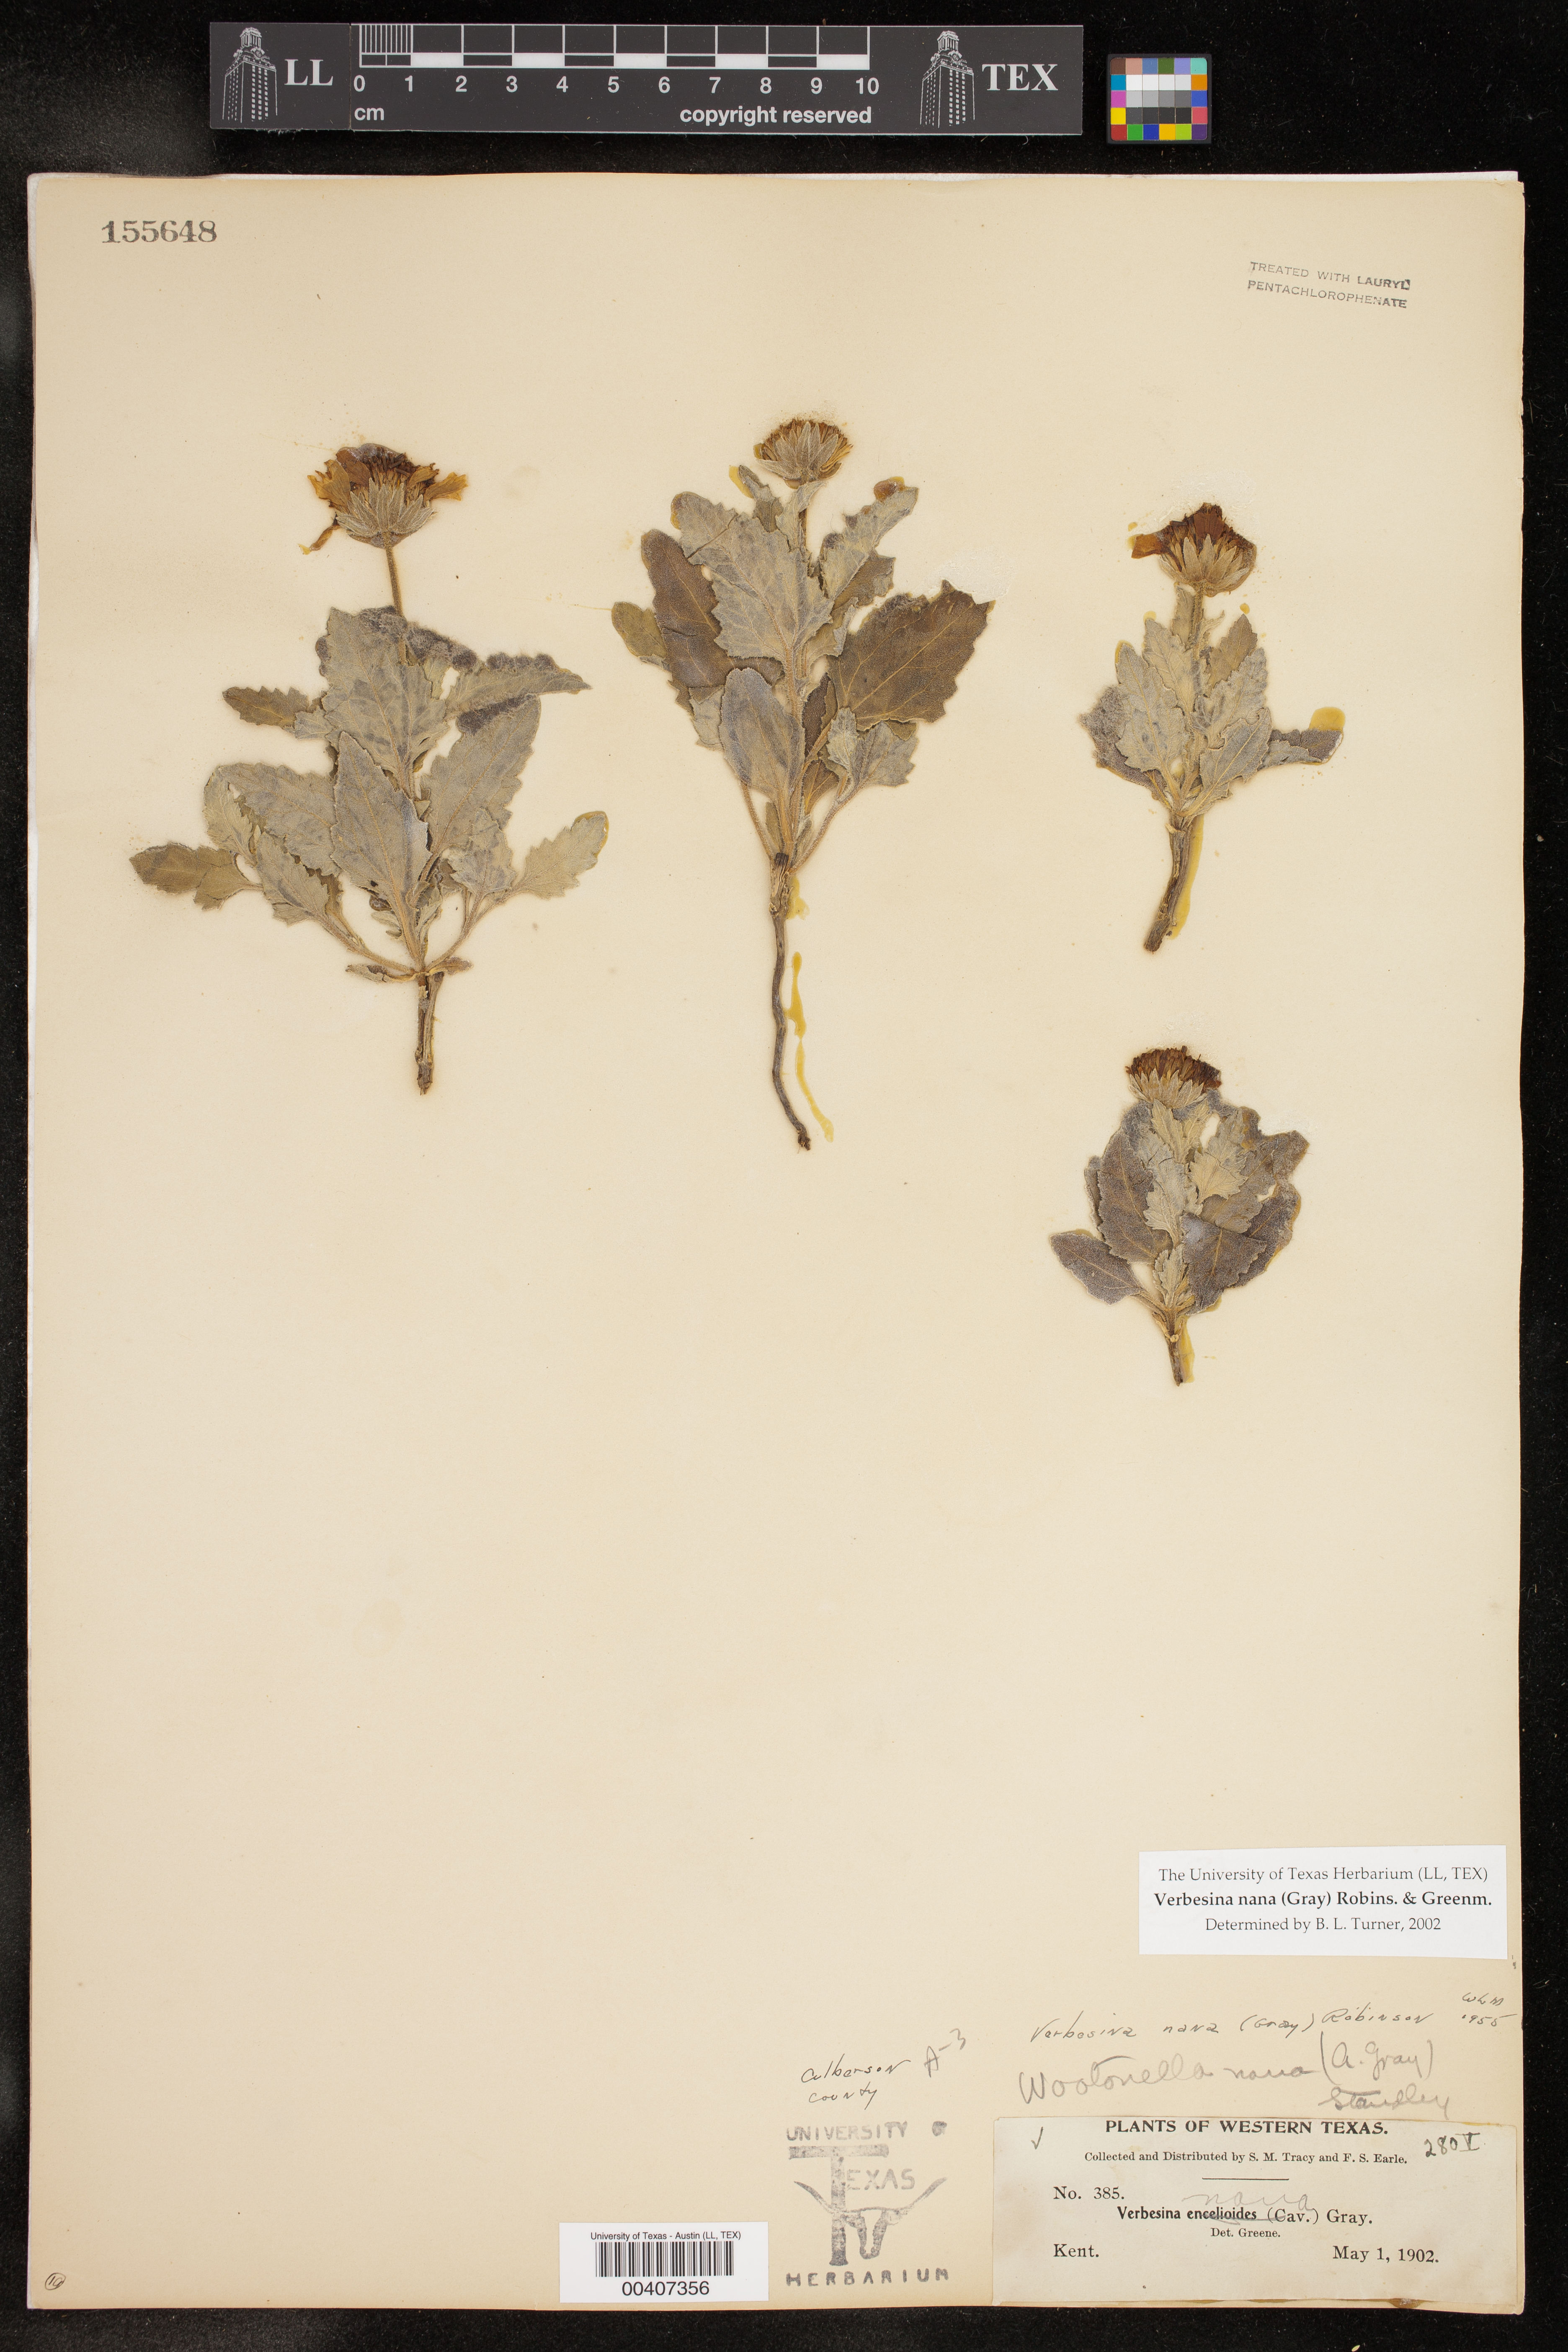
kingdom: Plantae
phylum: Tracheophyta
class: Magnoliopsida
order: Asterales
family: Asteraceae
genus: Verbesina
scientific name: Verbesina nana
